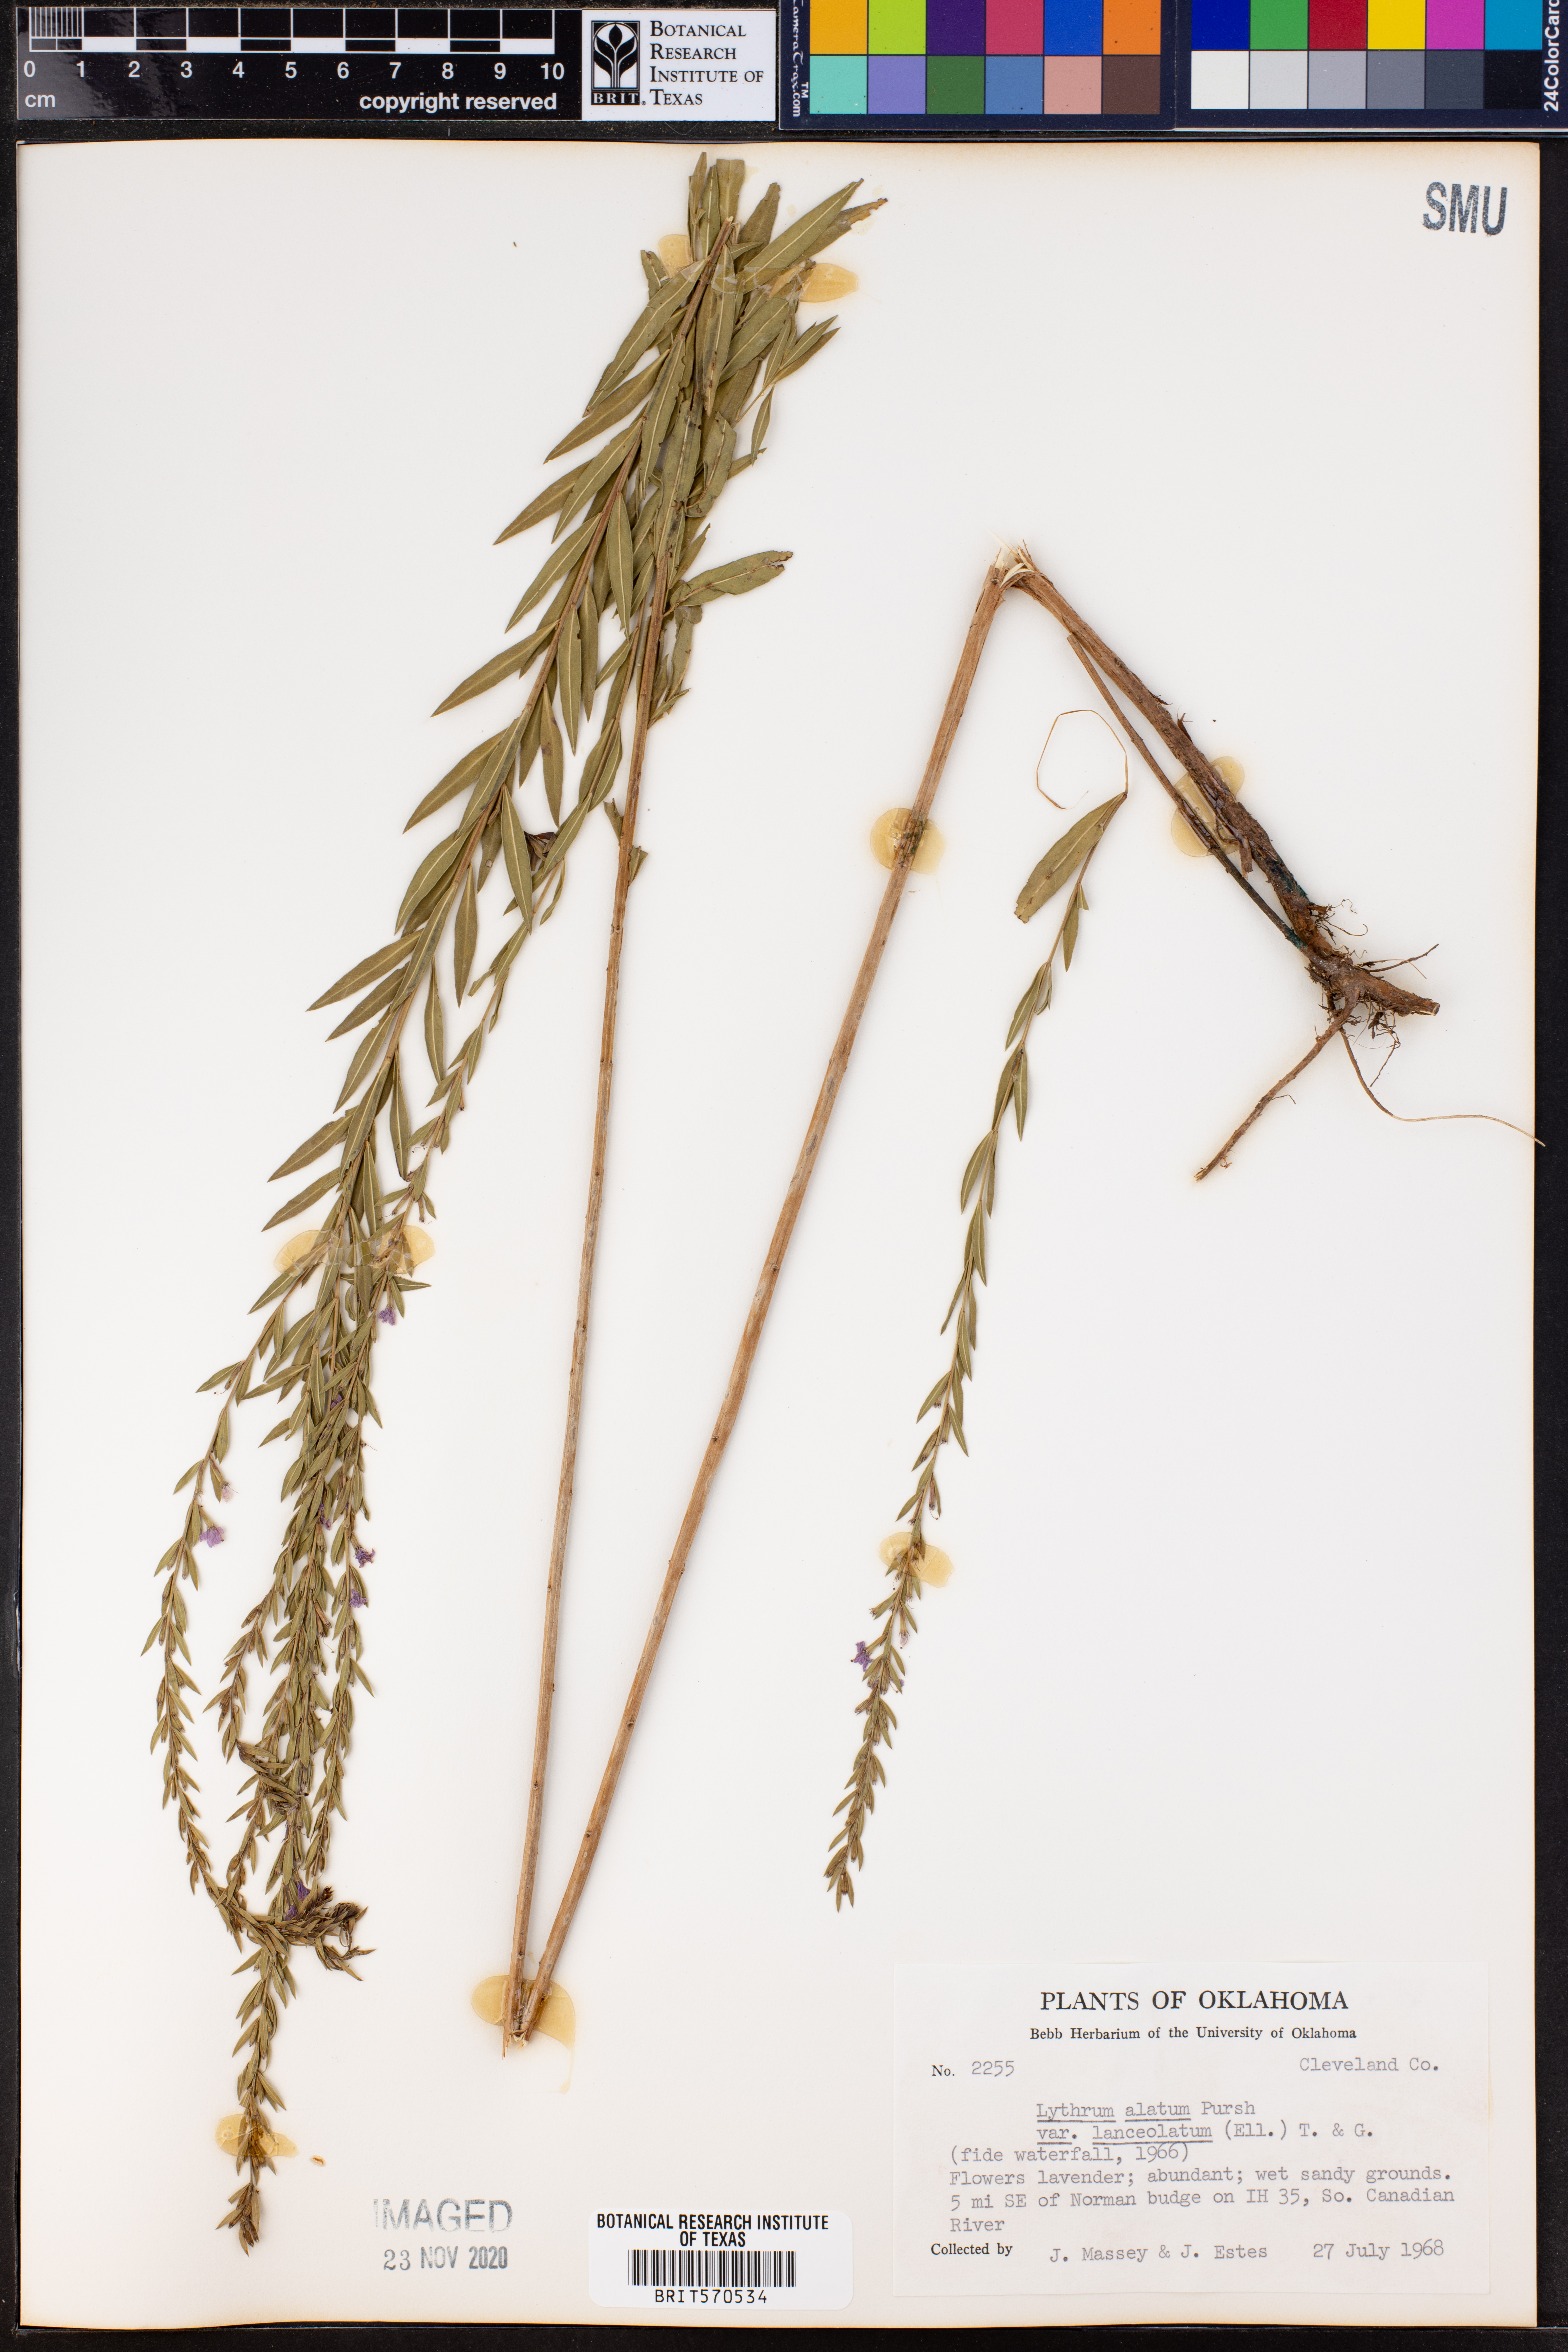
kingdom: Plantae
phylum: Tracheophyta
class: Magnoliopsida
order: Myrtales
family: Lythraceae
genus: Lythrum
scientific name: Lythrum alatum
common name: Winged loosestrife
